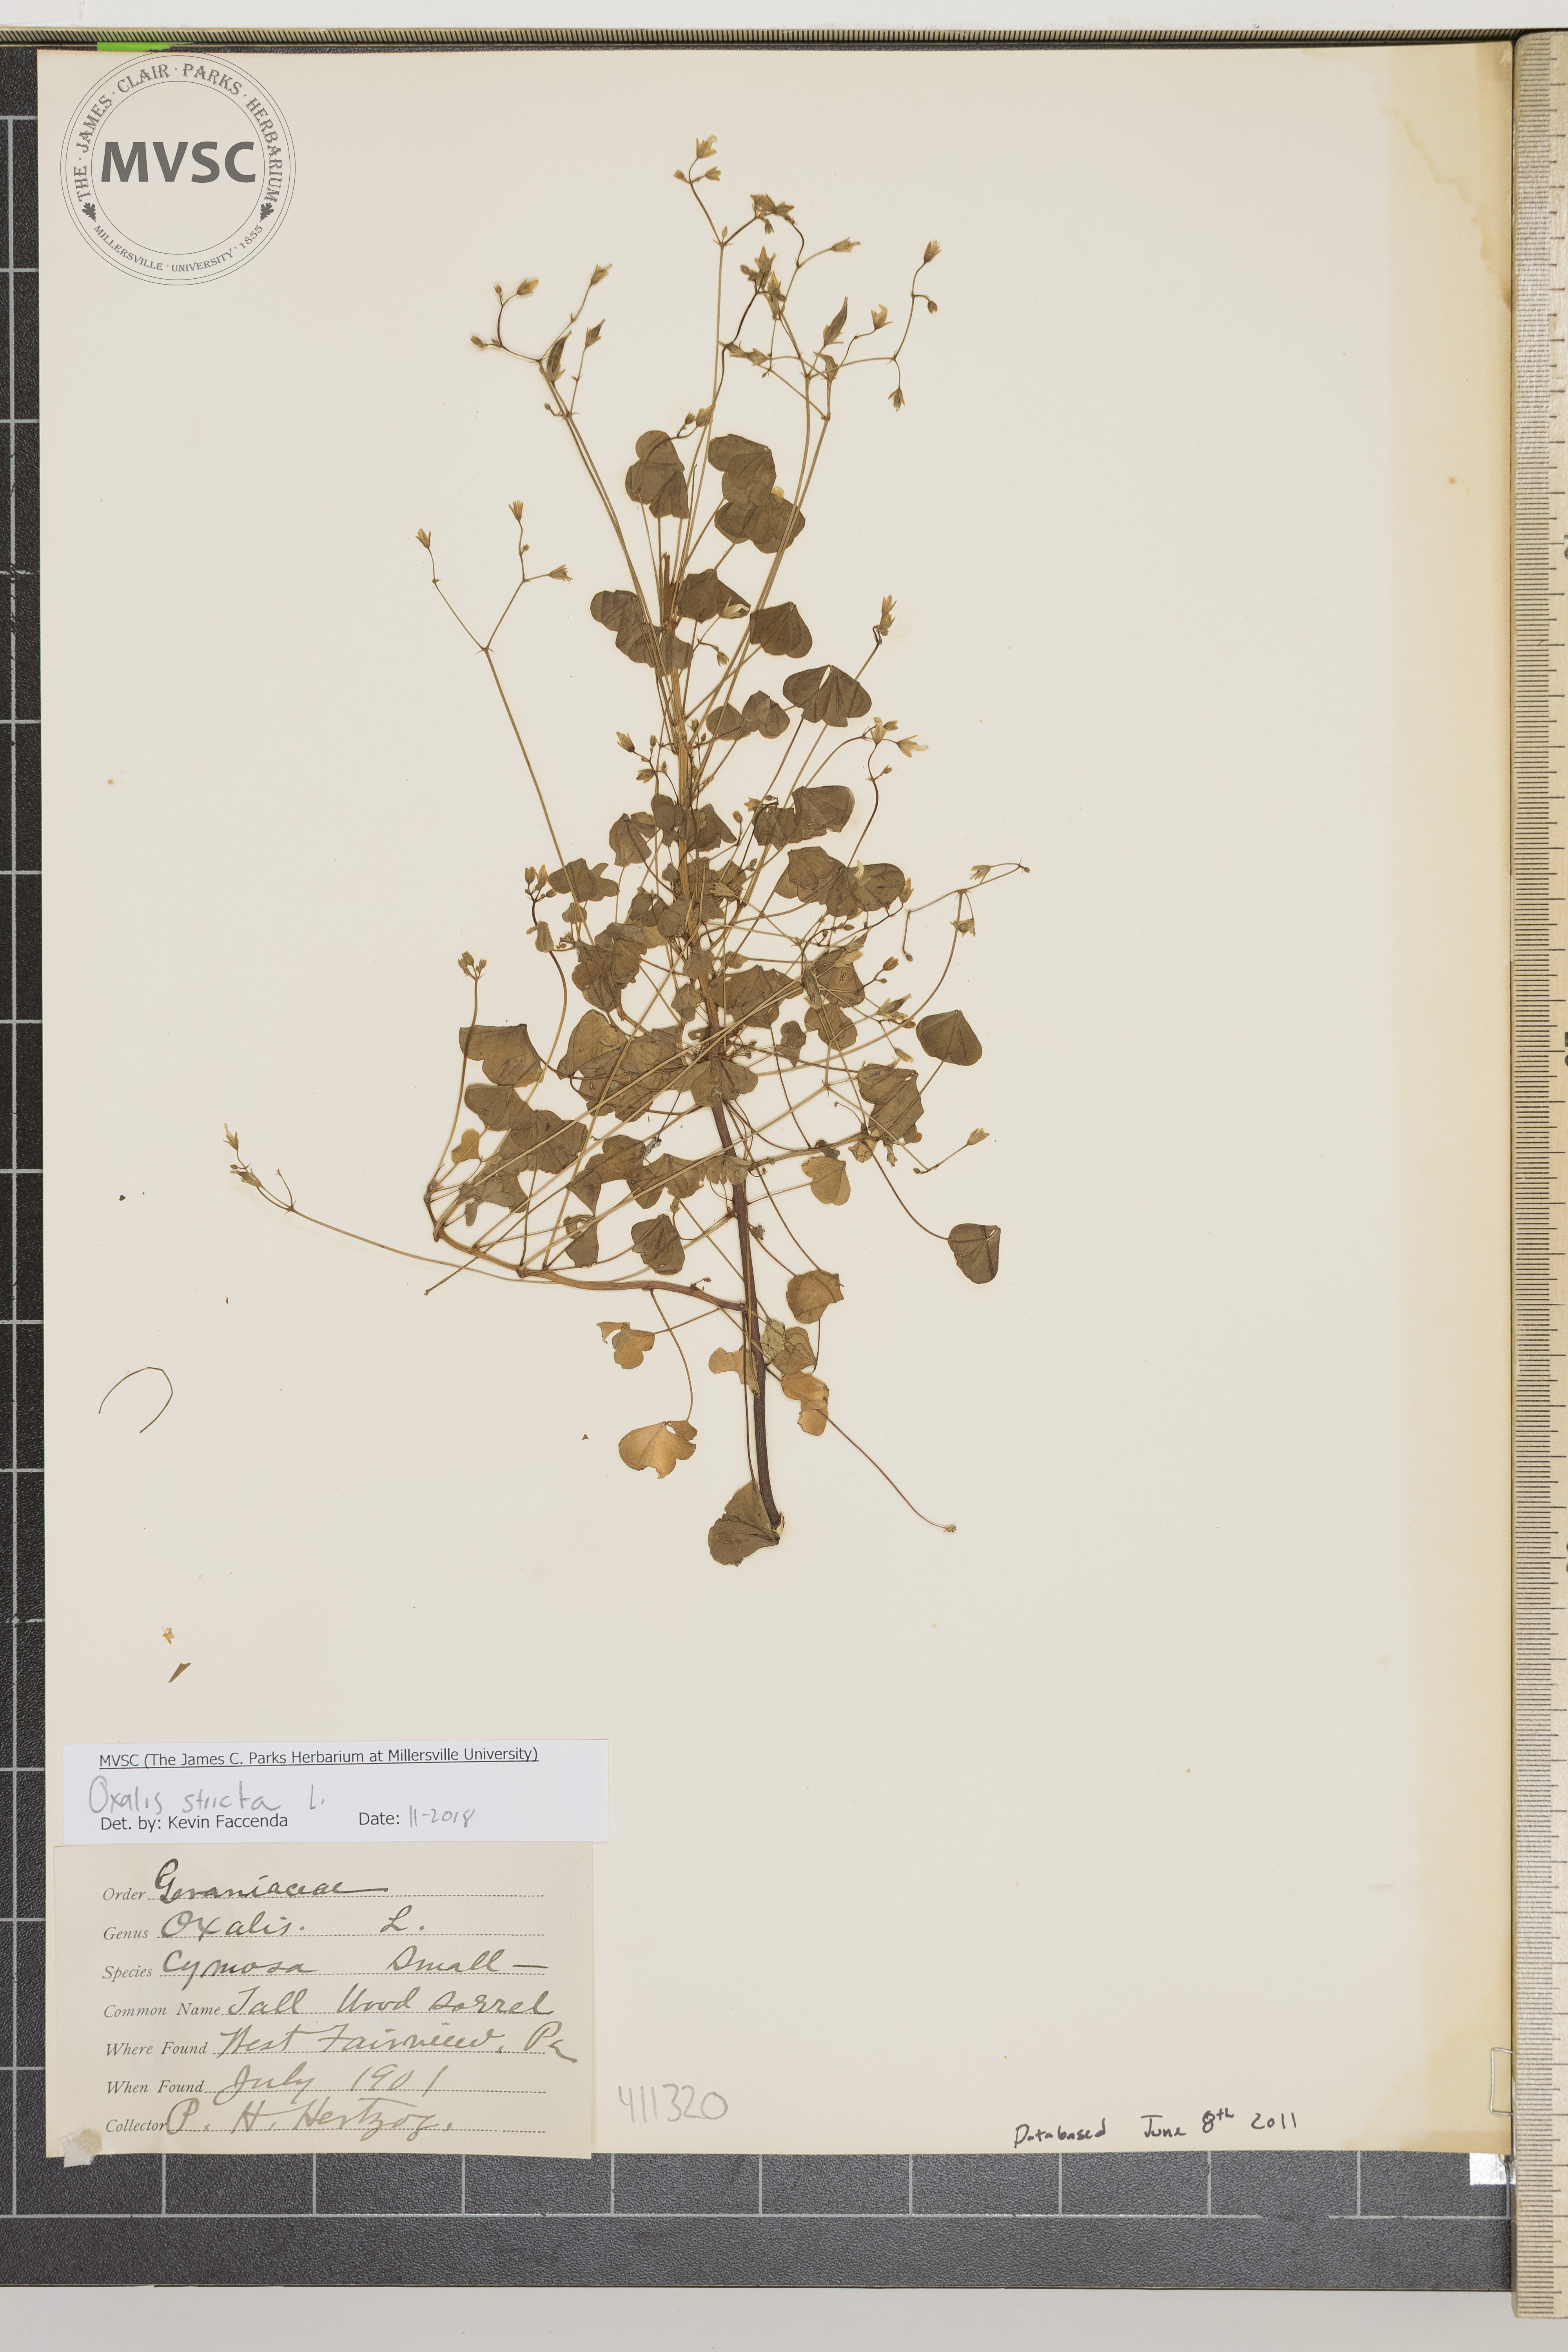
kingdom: Plantae
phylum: Tracheophyta
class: Magnoliopsida
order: Oxalidales
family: Oxalidaceae
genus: Oxalis
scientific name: Oxalis stricta
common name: Upright yellow-sorrel
